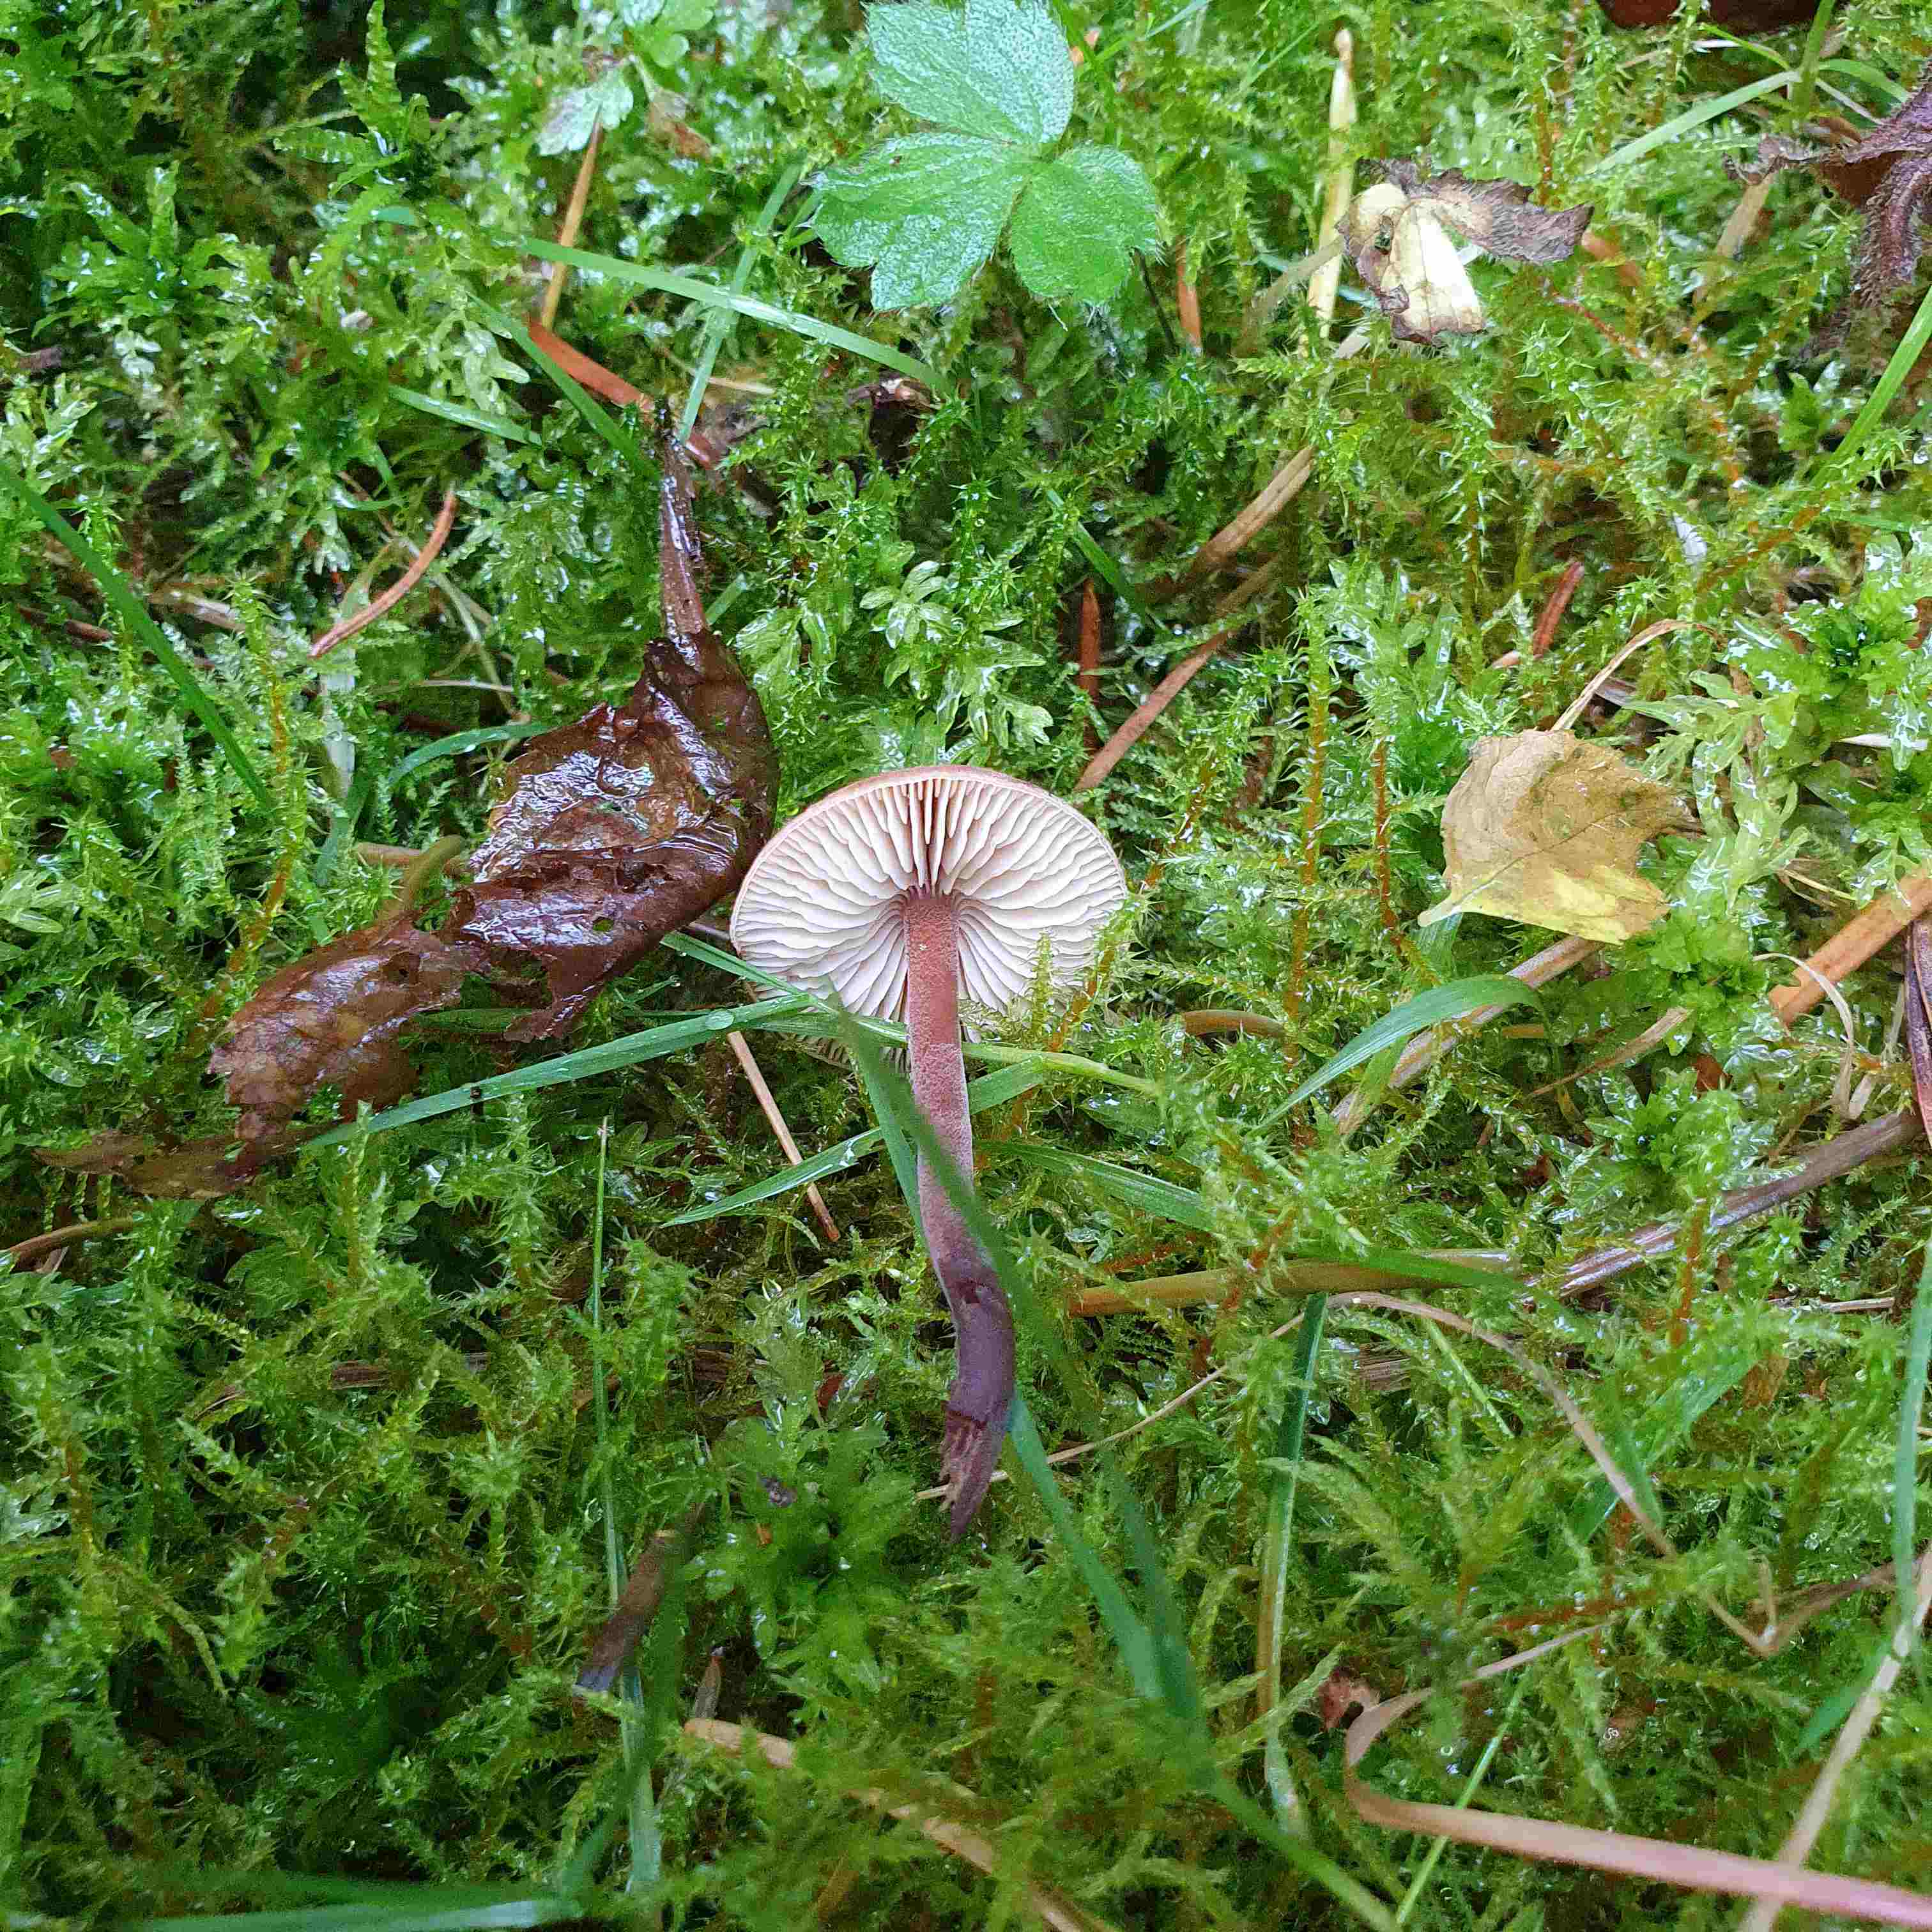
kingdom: Fungi
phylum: Basidiomycota
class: Agaricomycetes
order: Agaricales
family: Macrocystidiaceae
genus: Macrocystidia
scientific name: Macrocystidia cucumis
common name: agurkehat
